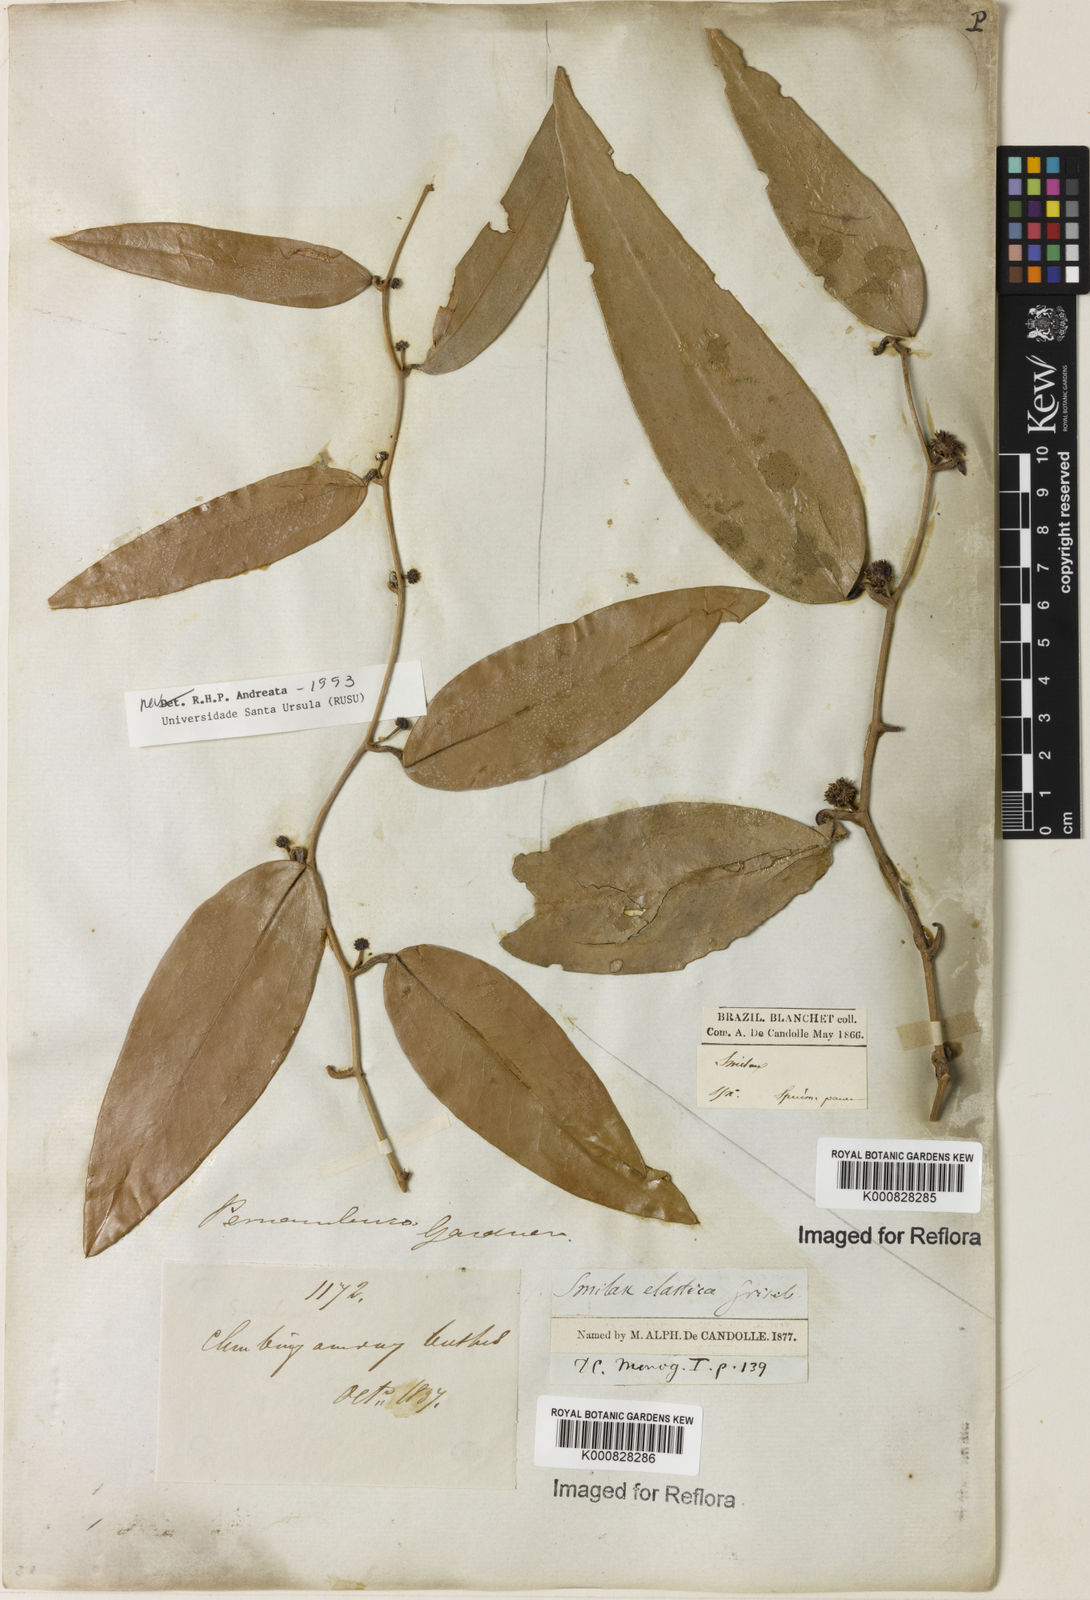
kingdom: Plantae
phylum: Tracheophyta
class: Liliopsida
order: Liliales
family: Smilacaceae
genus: Smilax
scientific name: Smilax elastica
